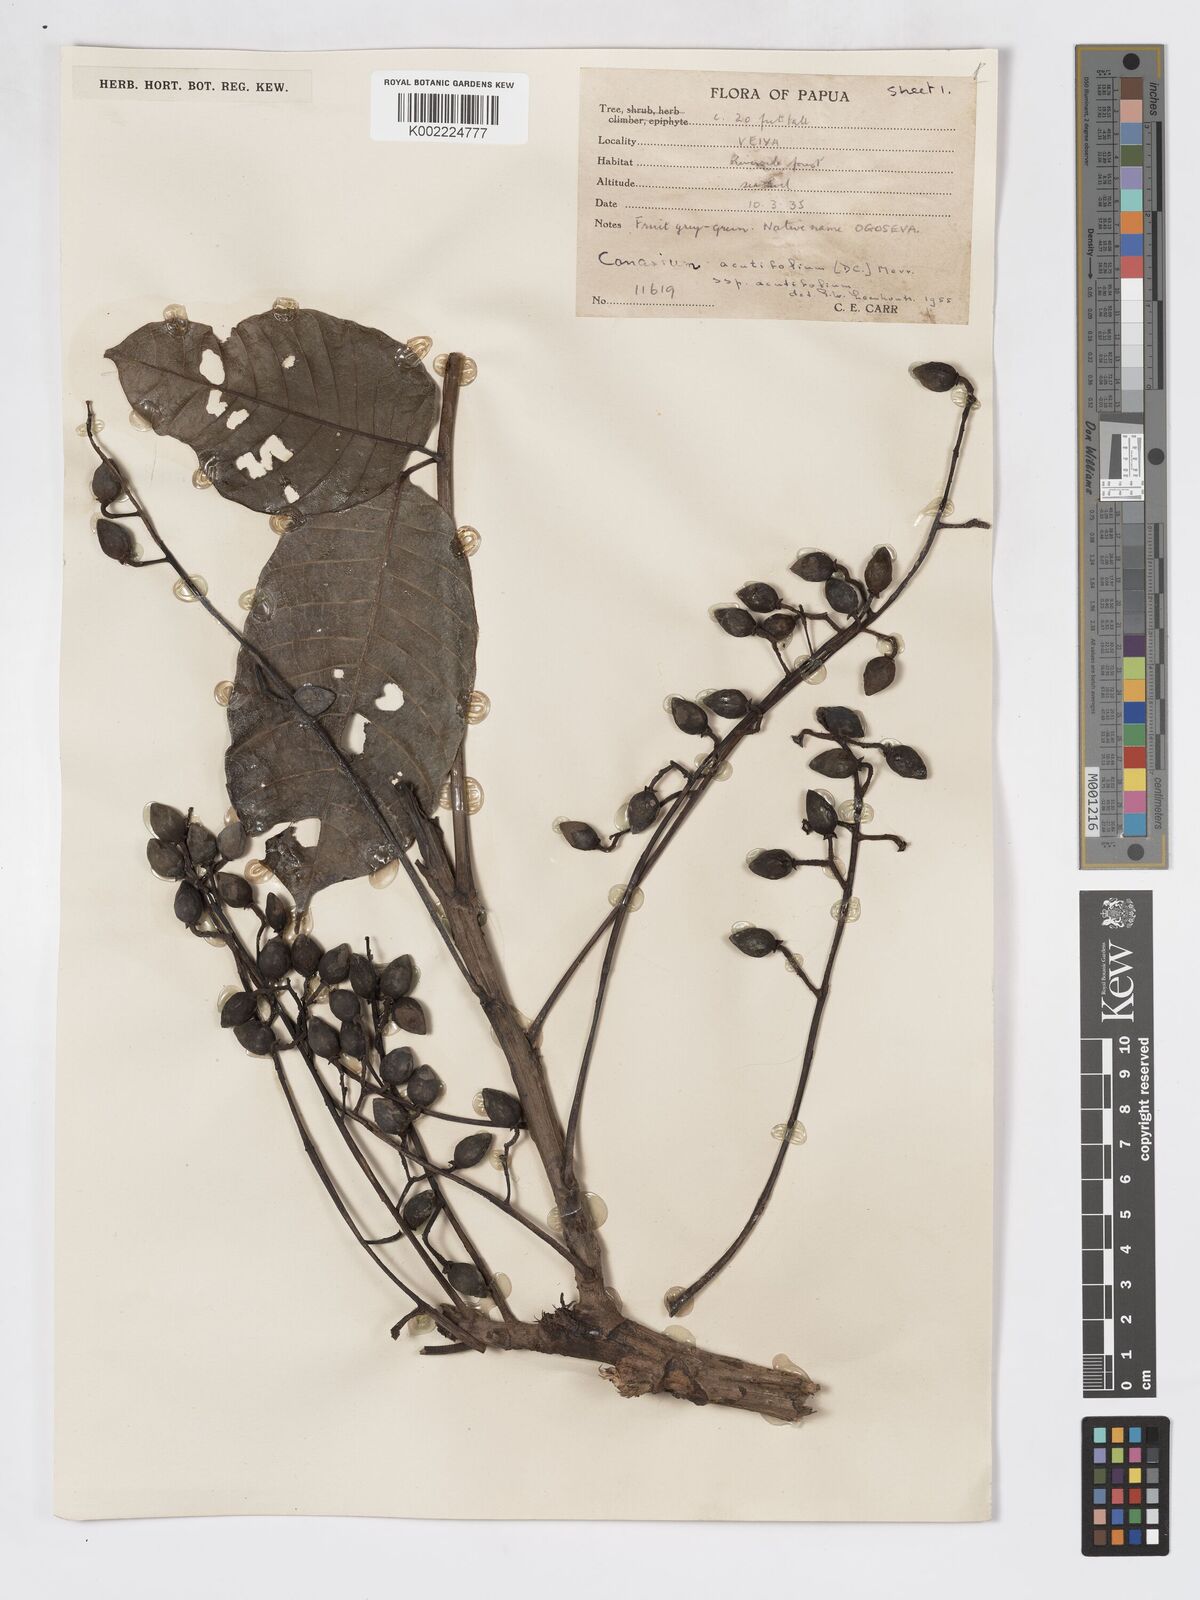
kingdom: Plantae
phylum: Tracheophyta
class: Magnoliopsida
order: Sapindales
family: Burseraceae
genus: Canarium
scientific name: Canarium acutifolium
